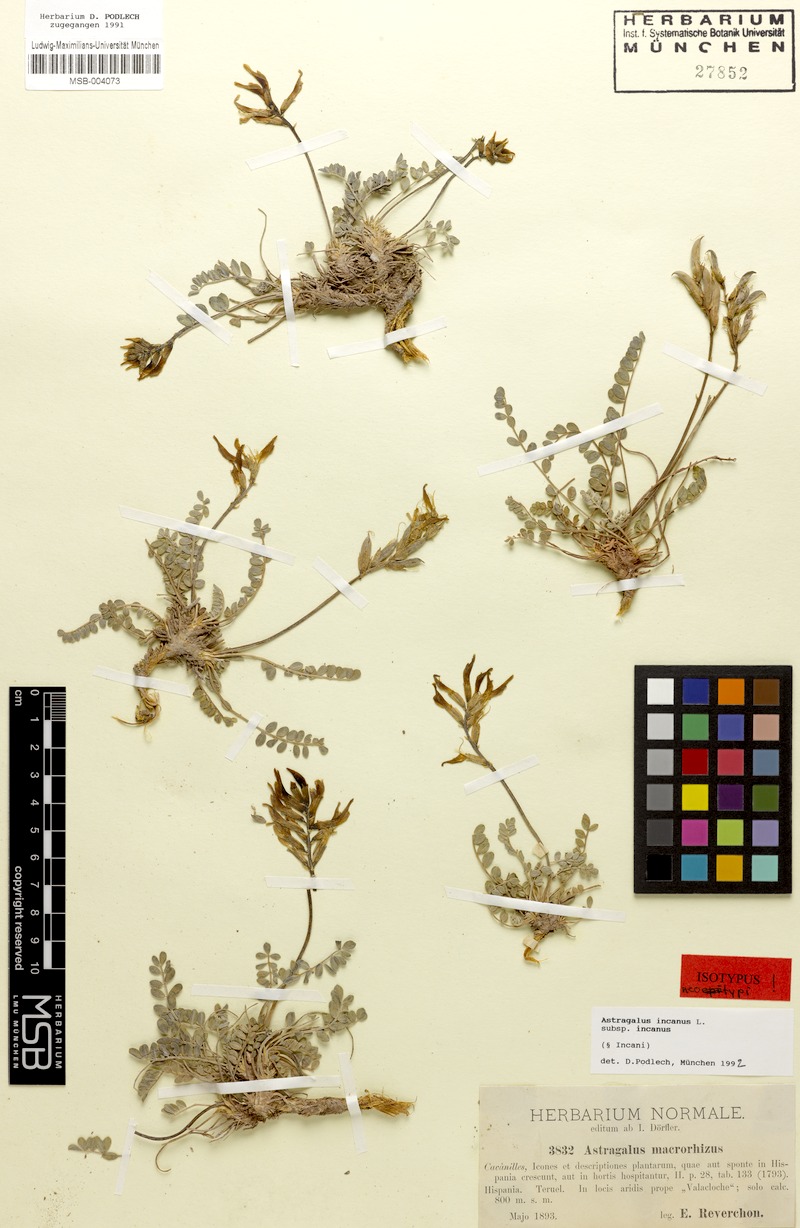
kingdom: Plantae
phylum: Tracheophyta
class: Magnoliopsida
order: Fabales
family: Fabaceae
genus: Astragalus
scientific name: Astragalus incanus
